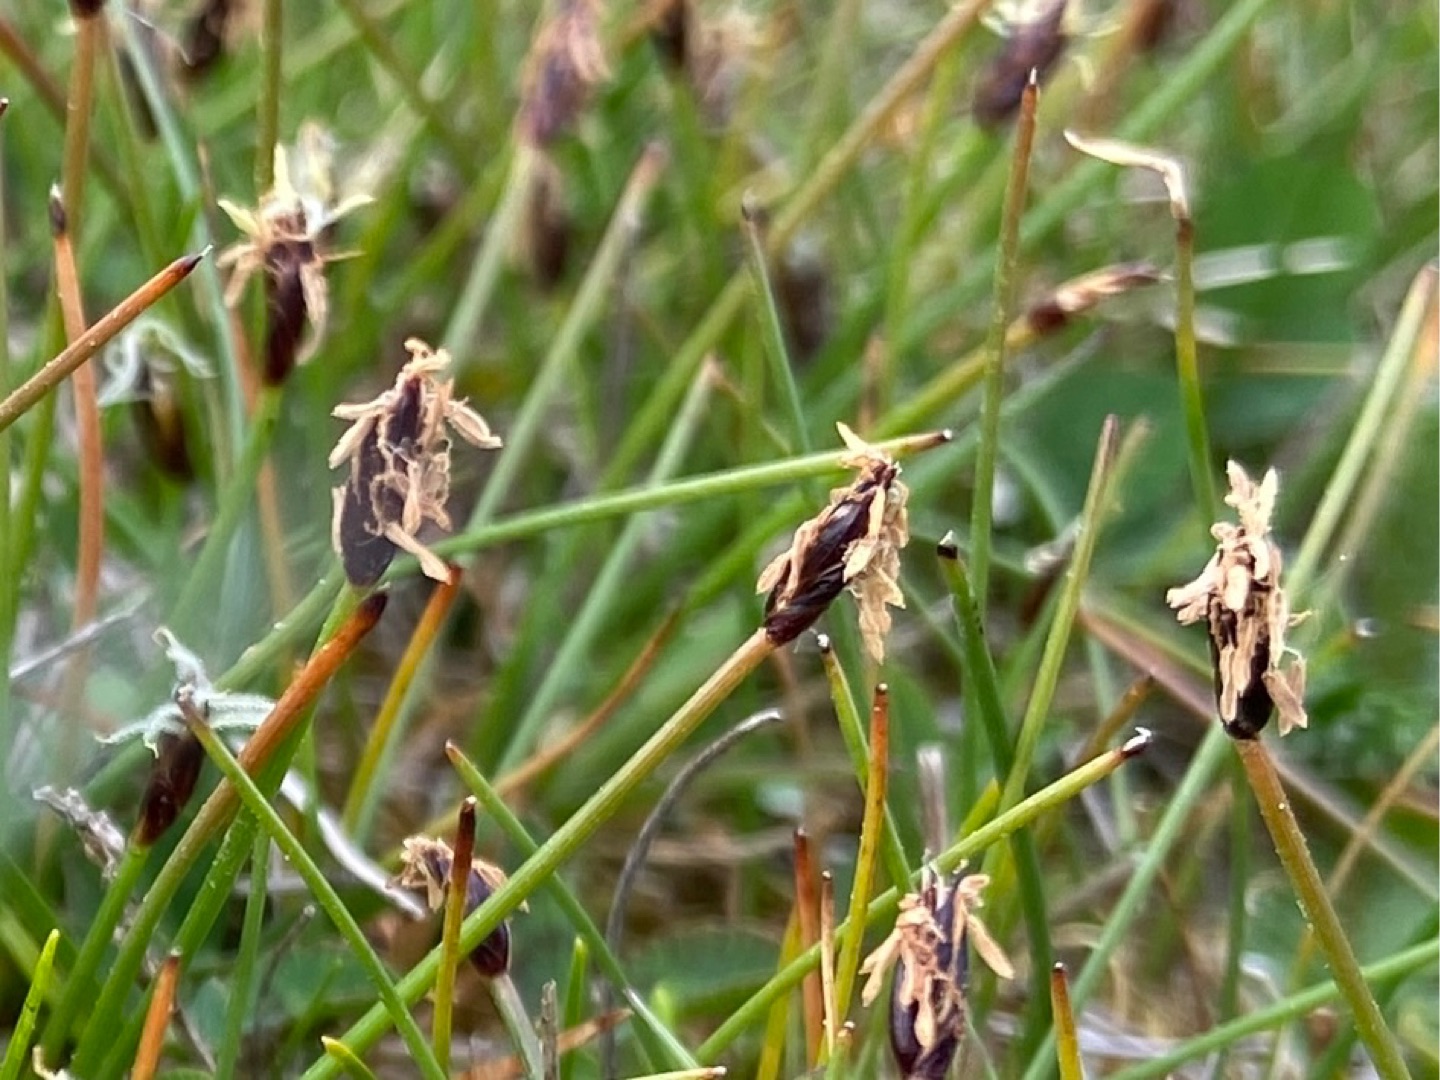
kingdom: Plantae
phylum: Tracheophyta
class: Liliopsida
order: Poales
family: Cyperaceae
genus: Eleocharis
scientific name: Eleocharis quinqueflora
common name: Fåblomstret kogleaks
